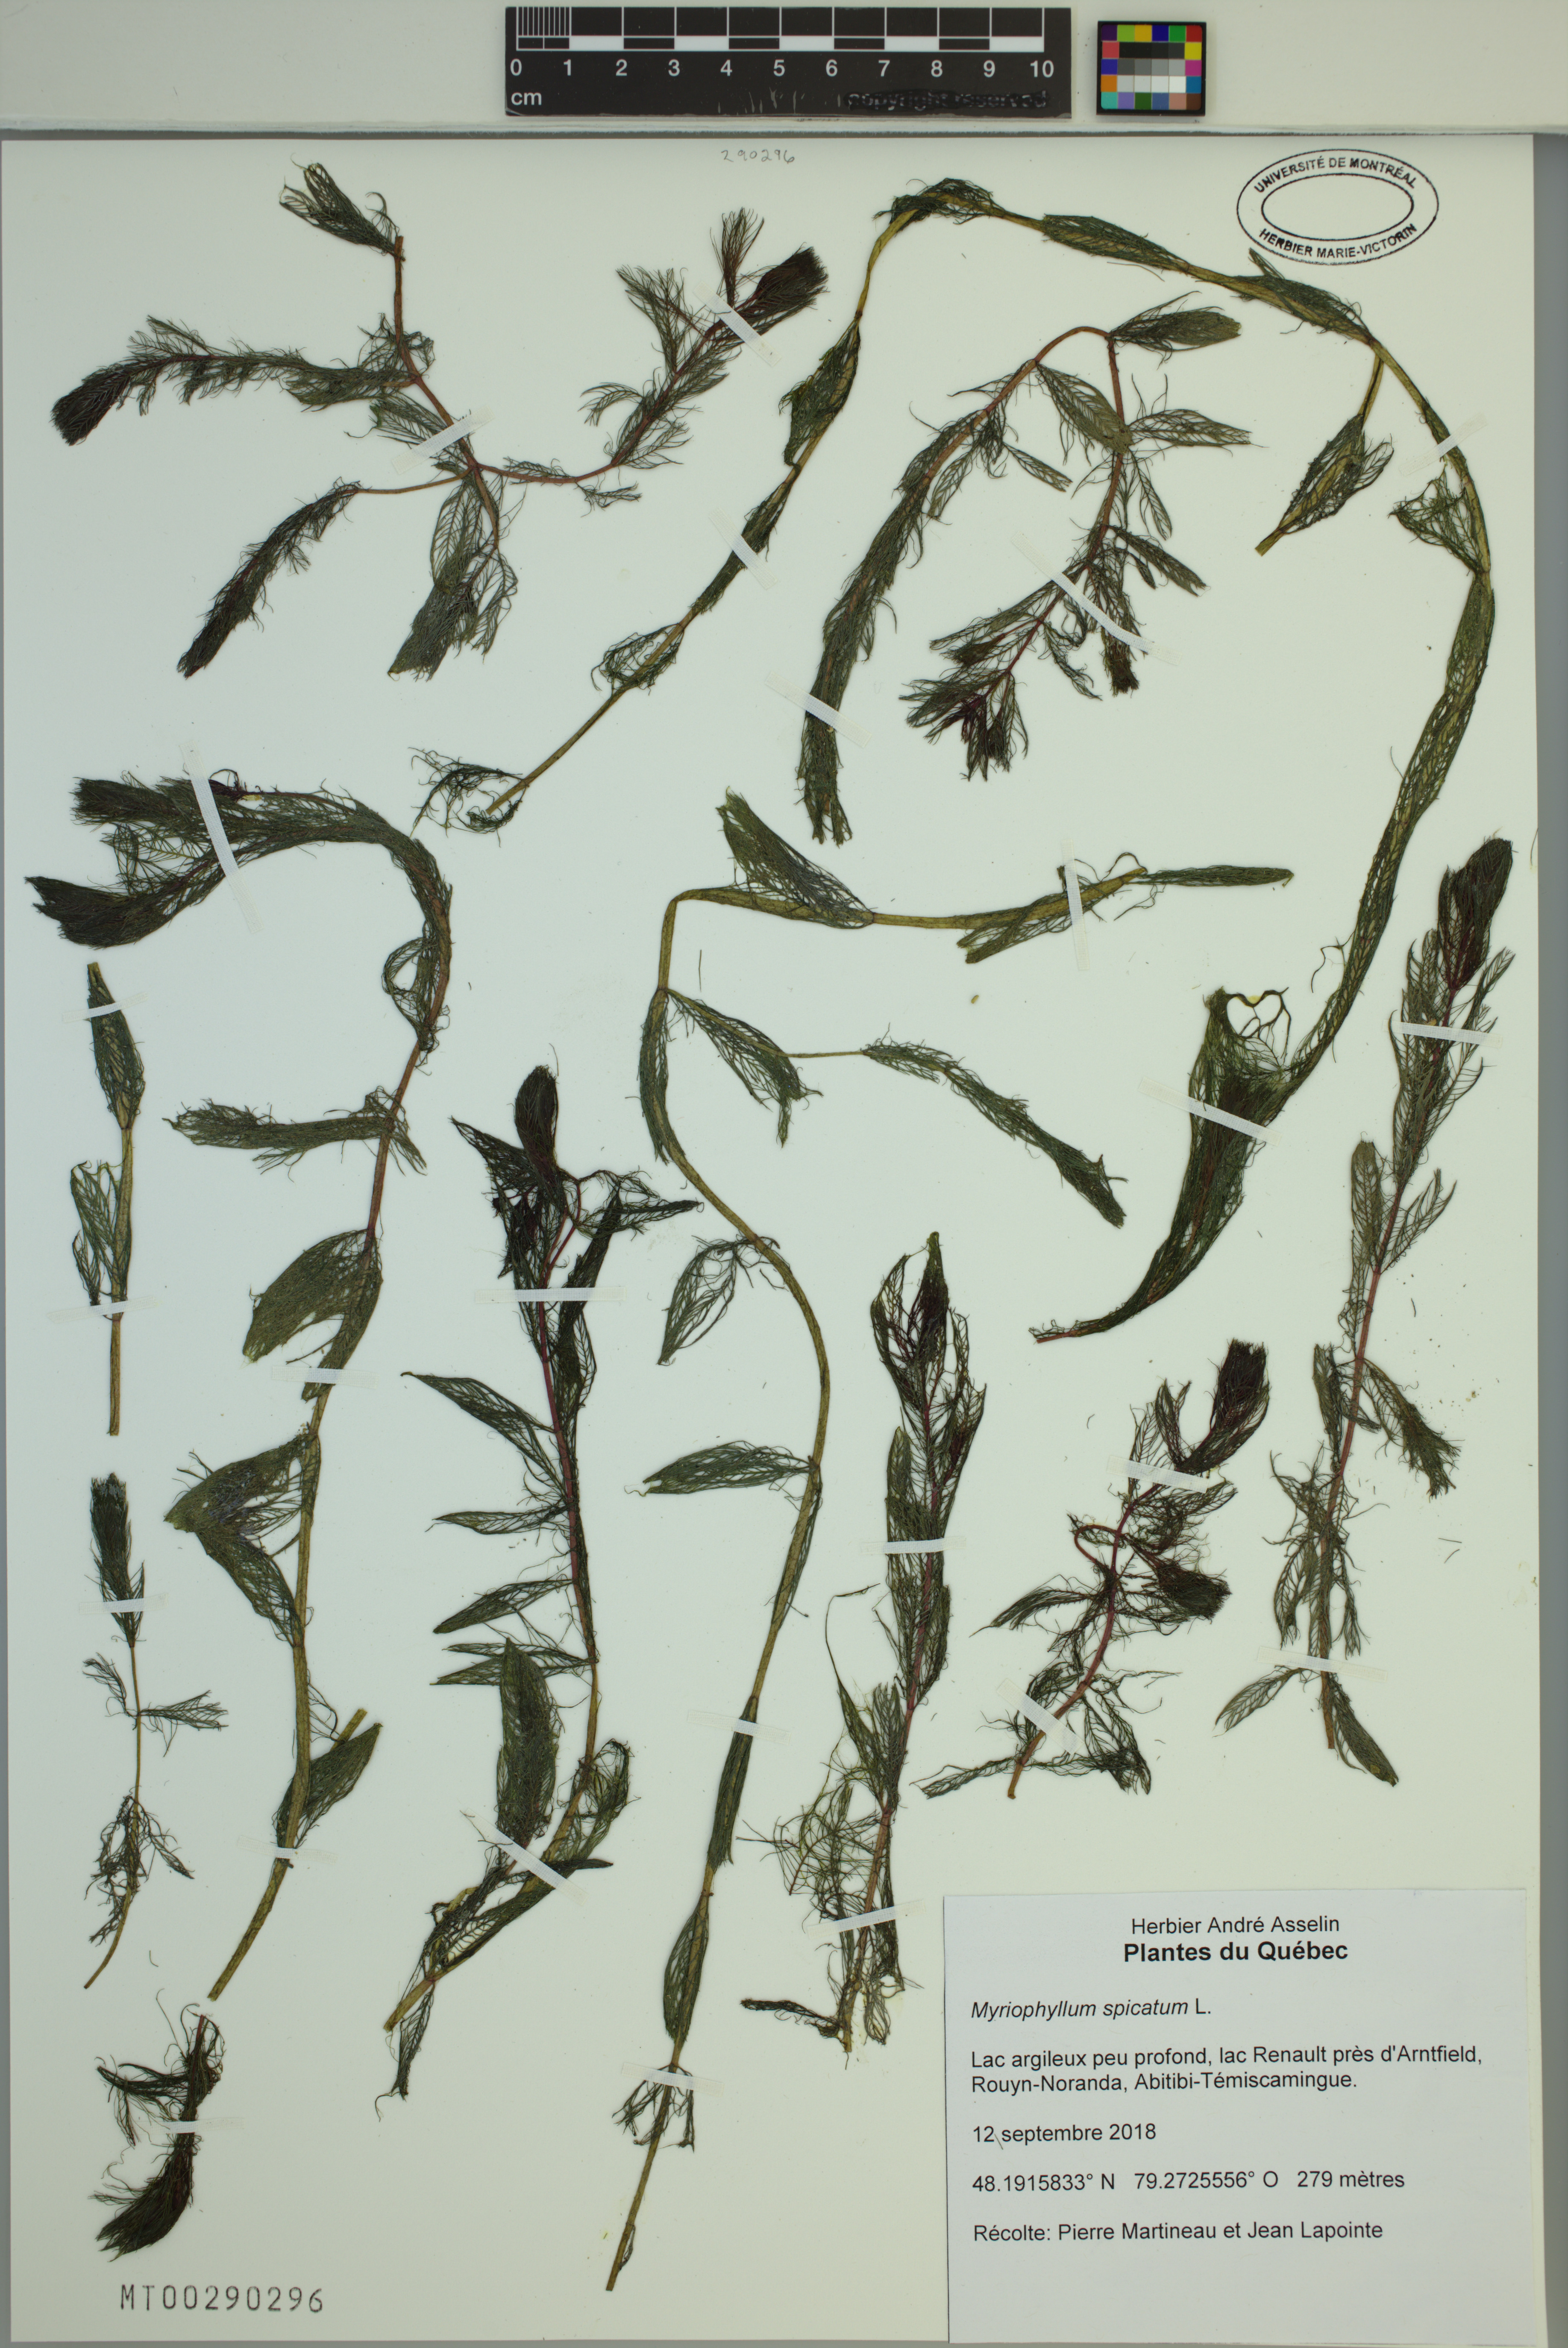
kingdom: Plantae
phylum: Tracheophyta
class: Magnoliopsida
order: Saxifragales
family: Haloragaceae
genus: Myriophyllum
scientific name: Myriophyllum spicatum
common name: Spiked water-milfoil
